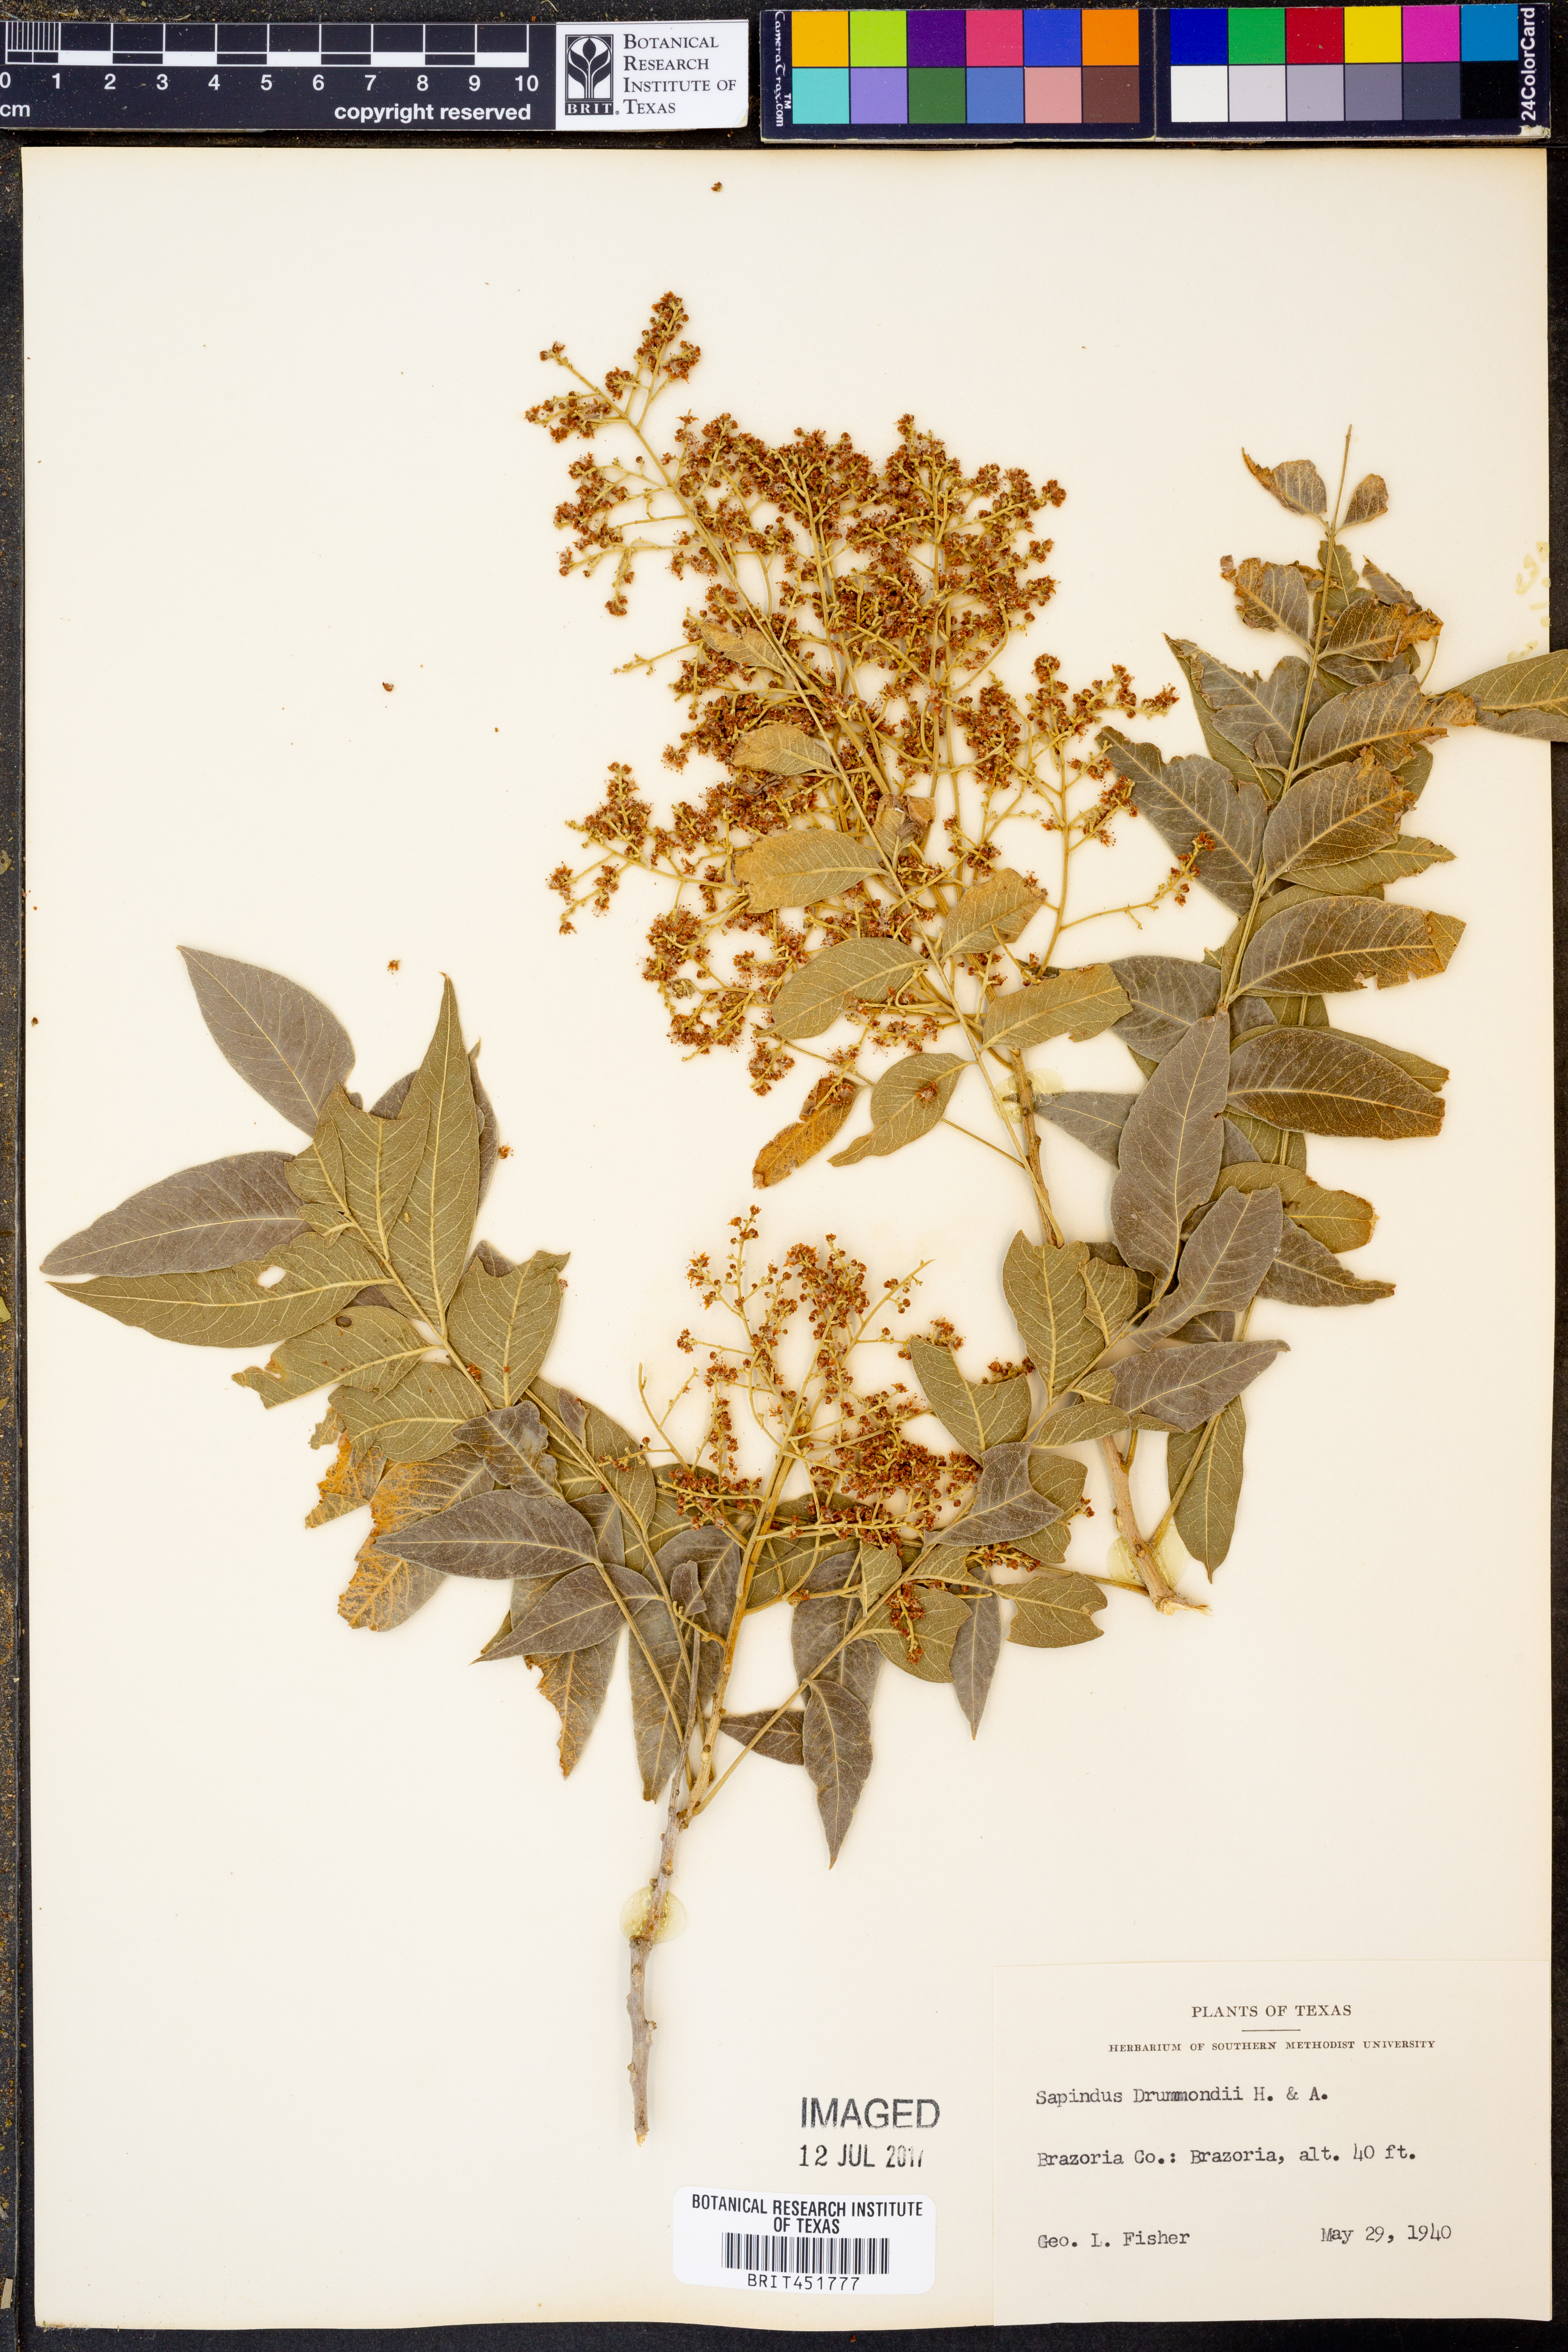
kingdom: Plantae
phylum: Tracheophyta
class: Magnoliopsida
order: Sapindales
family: Sapindaceae
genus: Sapindus
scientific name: Sapindus drummondii
